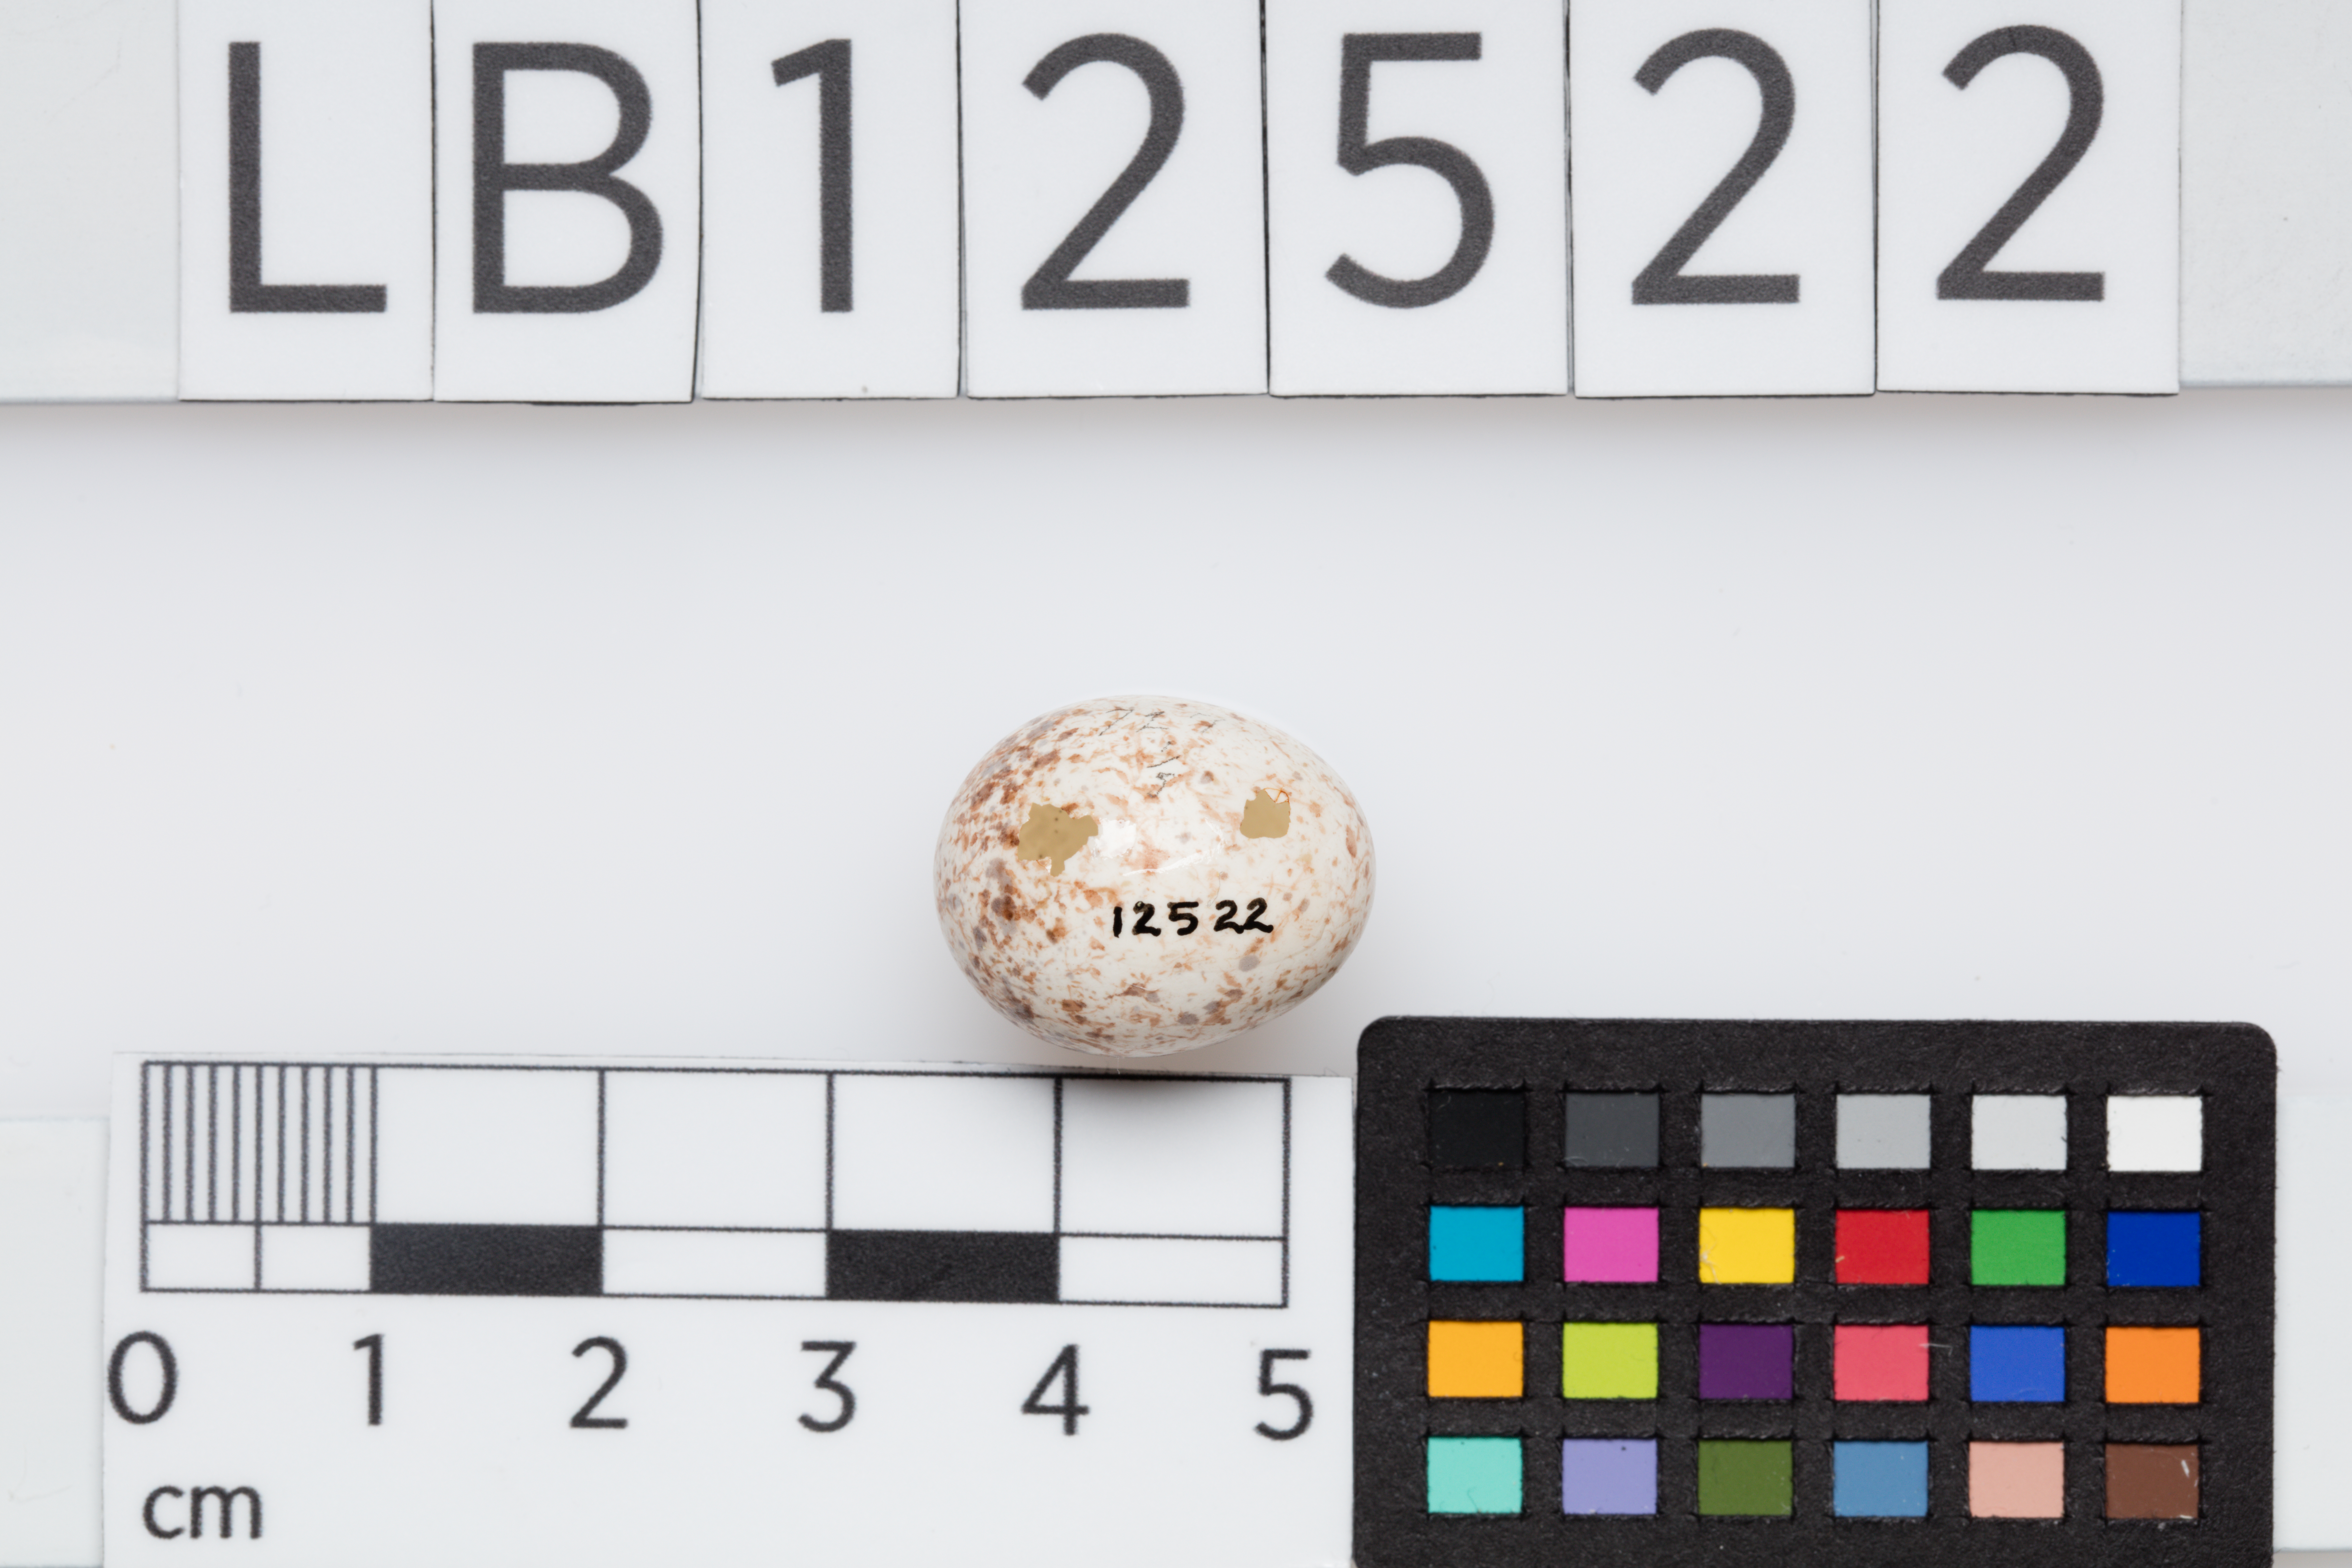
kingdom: Animalia
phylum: Chordata
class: Aves
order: Passeriformes
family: Sittidae
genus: Sitta
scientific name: Sitta carolinensis
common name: White-breasted nuthatch
